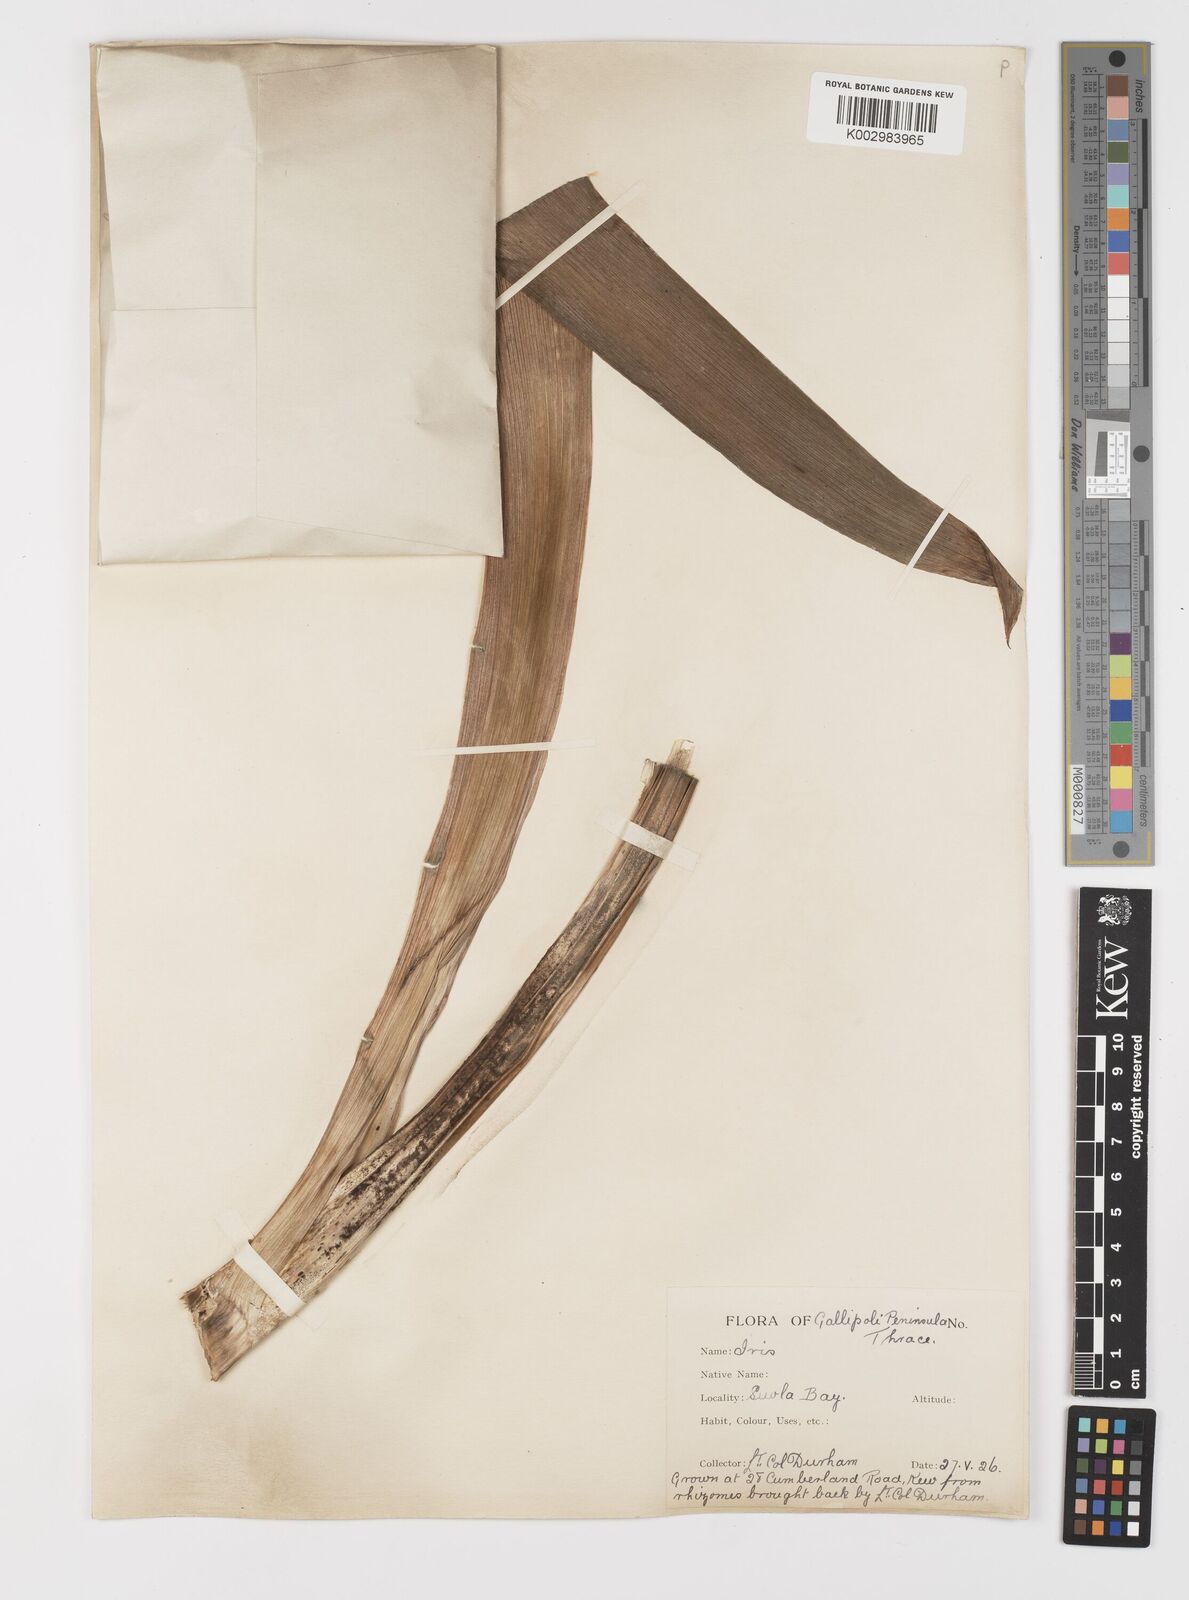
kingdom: Plantae
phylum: Tracheophyta
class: Liliopsida
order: Asparagales
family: Iridaceae
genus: Iris
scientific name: Iris germanica
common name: German iris
